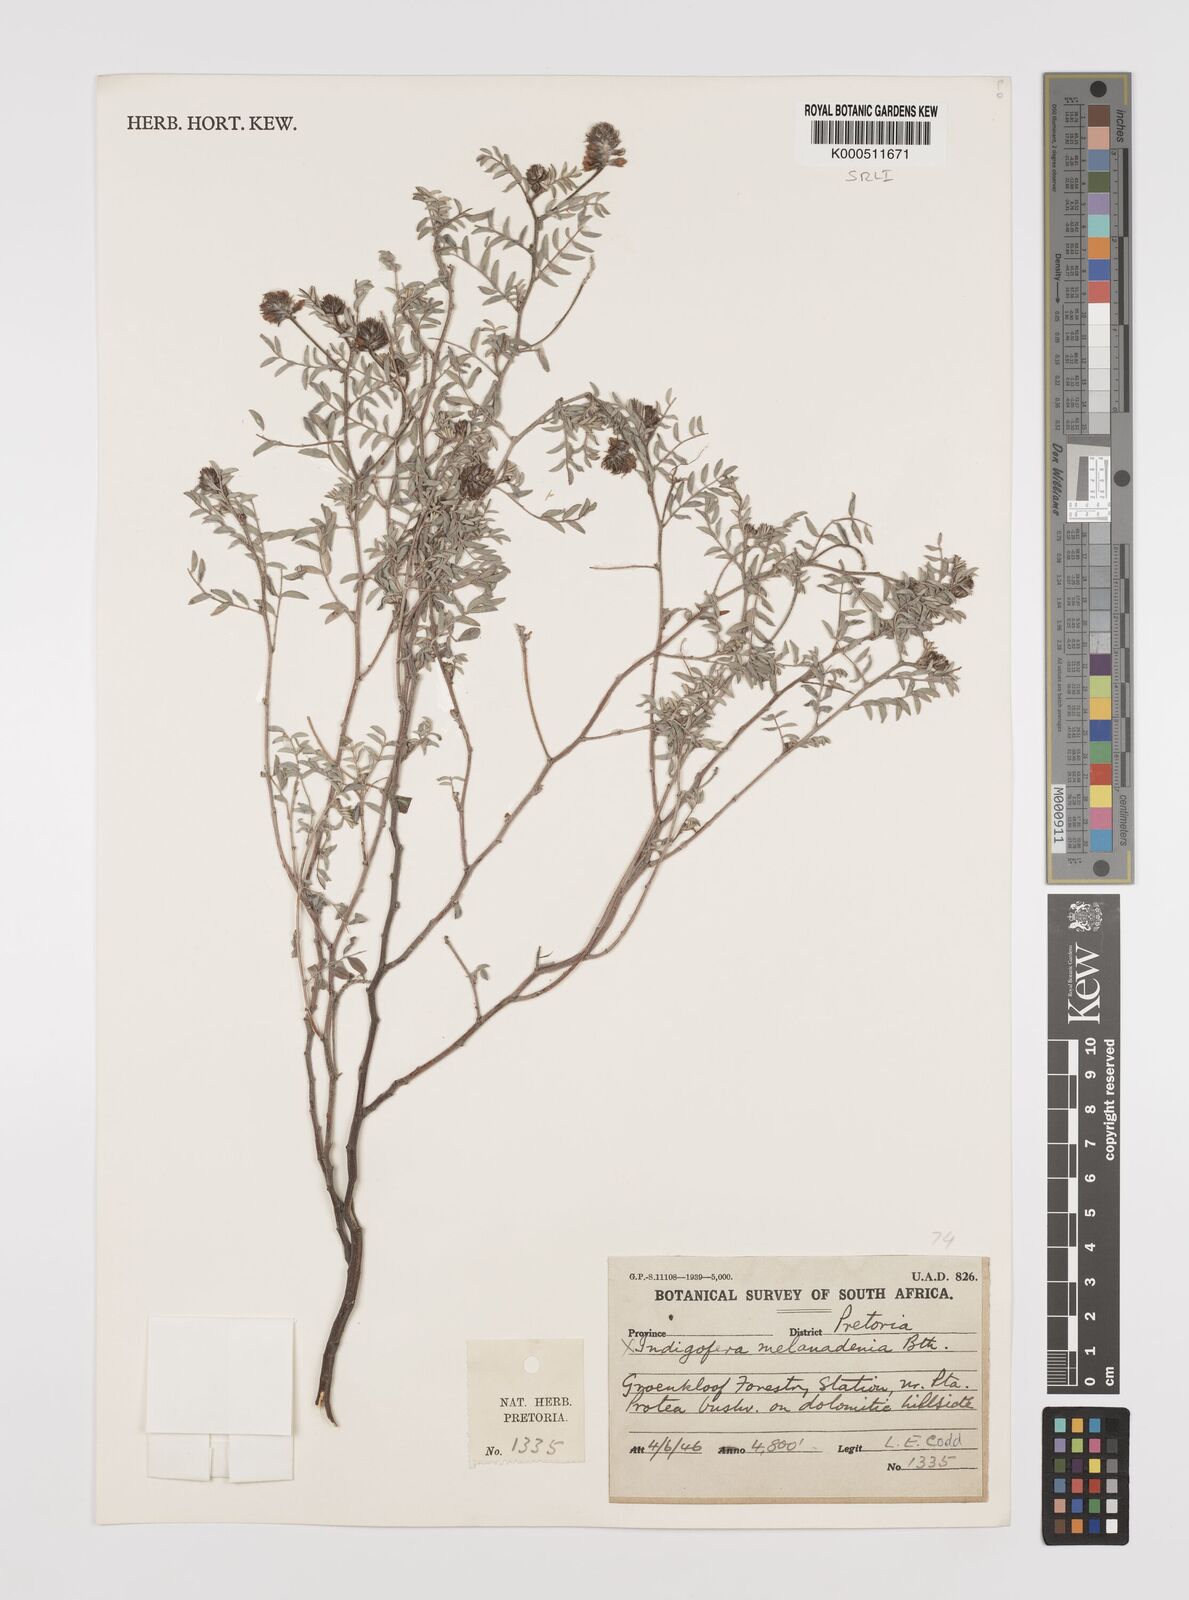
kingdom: Plantae
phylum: Tracheophyta
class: Magnoliopsida
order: Fabales
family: Fabaceae
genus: Indigofera
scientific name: Indigofera melanadenia
